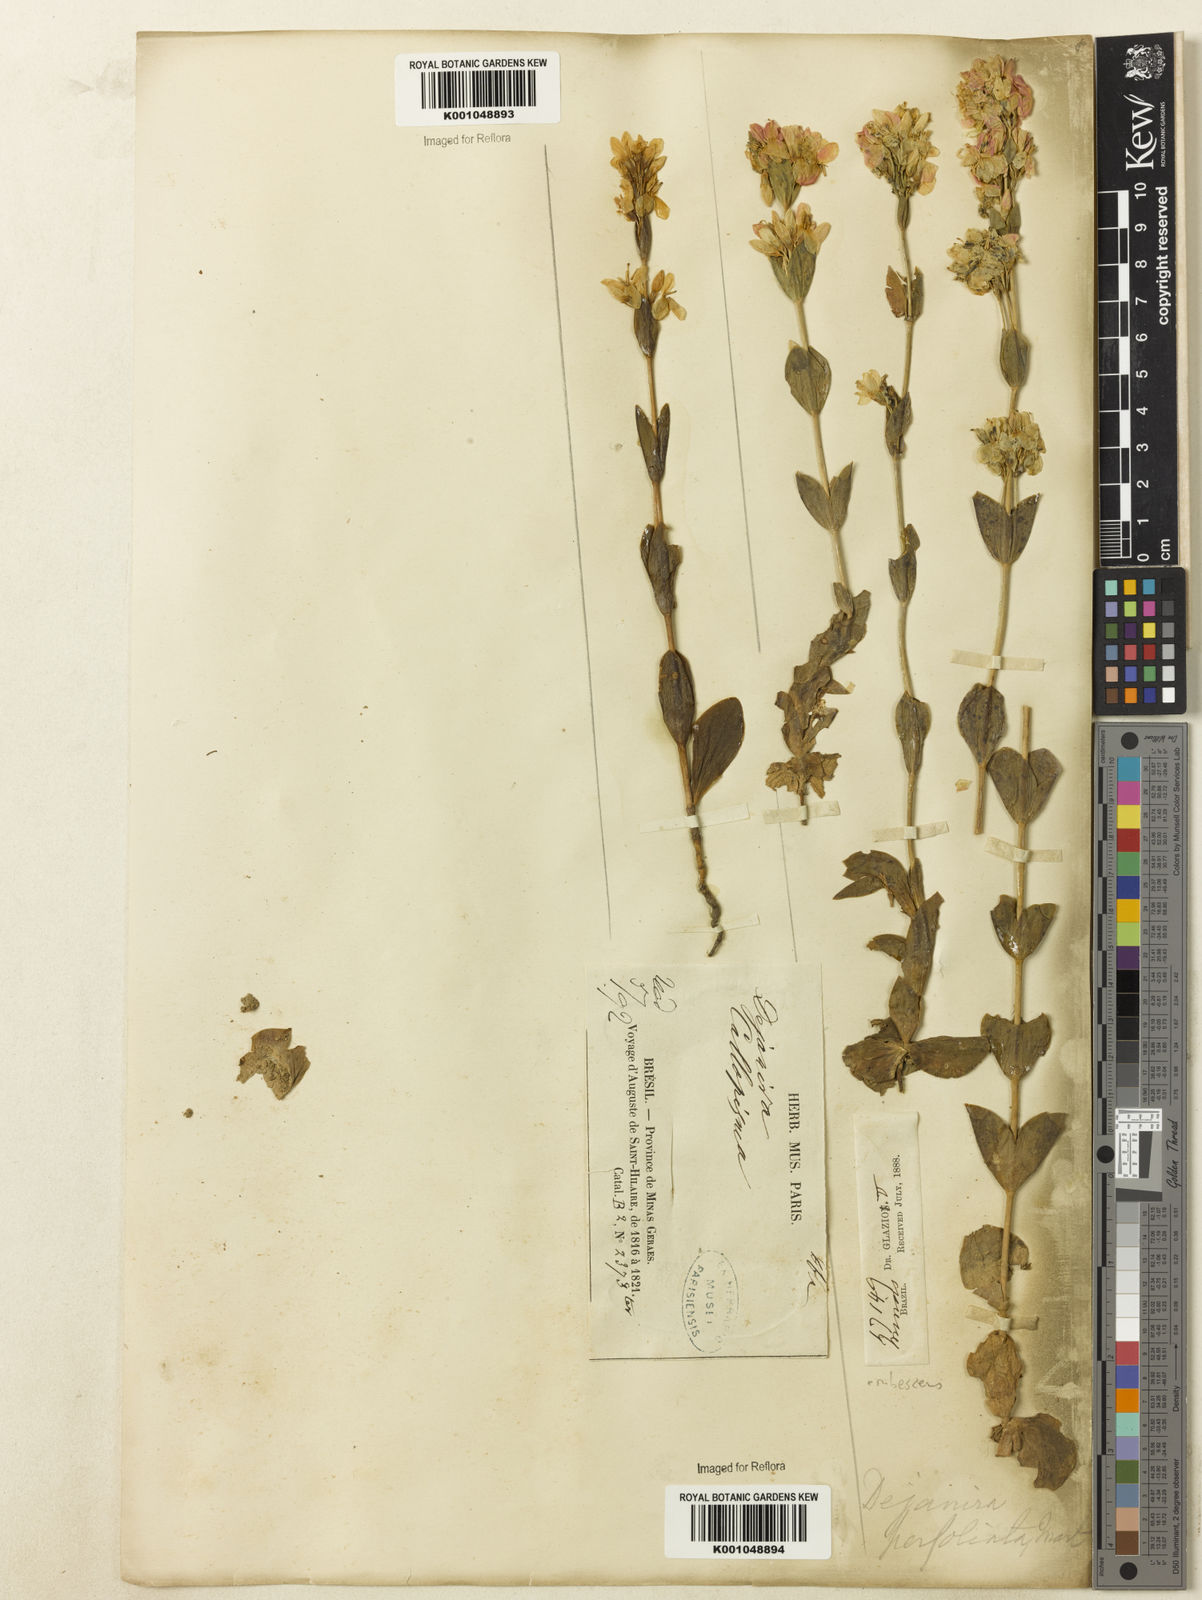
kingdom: Plantae
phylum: Tracheophyta
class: Magnoliopsida
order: Gentianales
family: Gentianaceae
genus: Deianira
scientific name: Deianira erubescens
